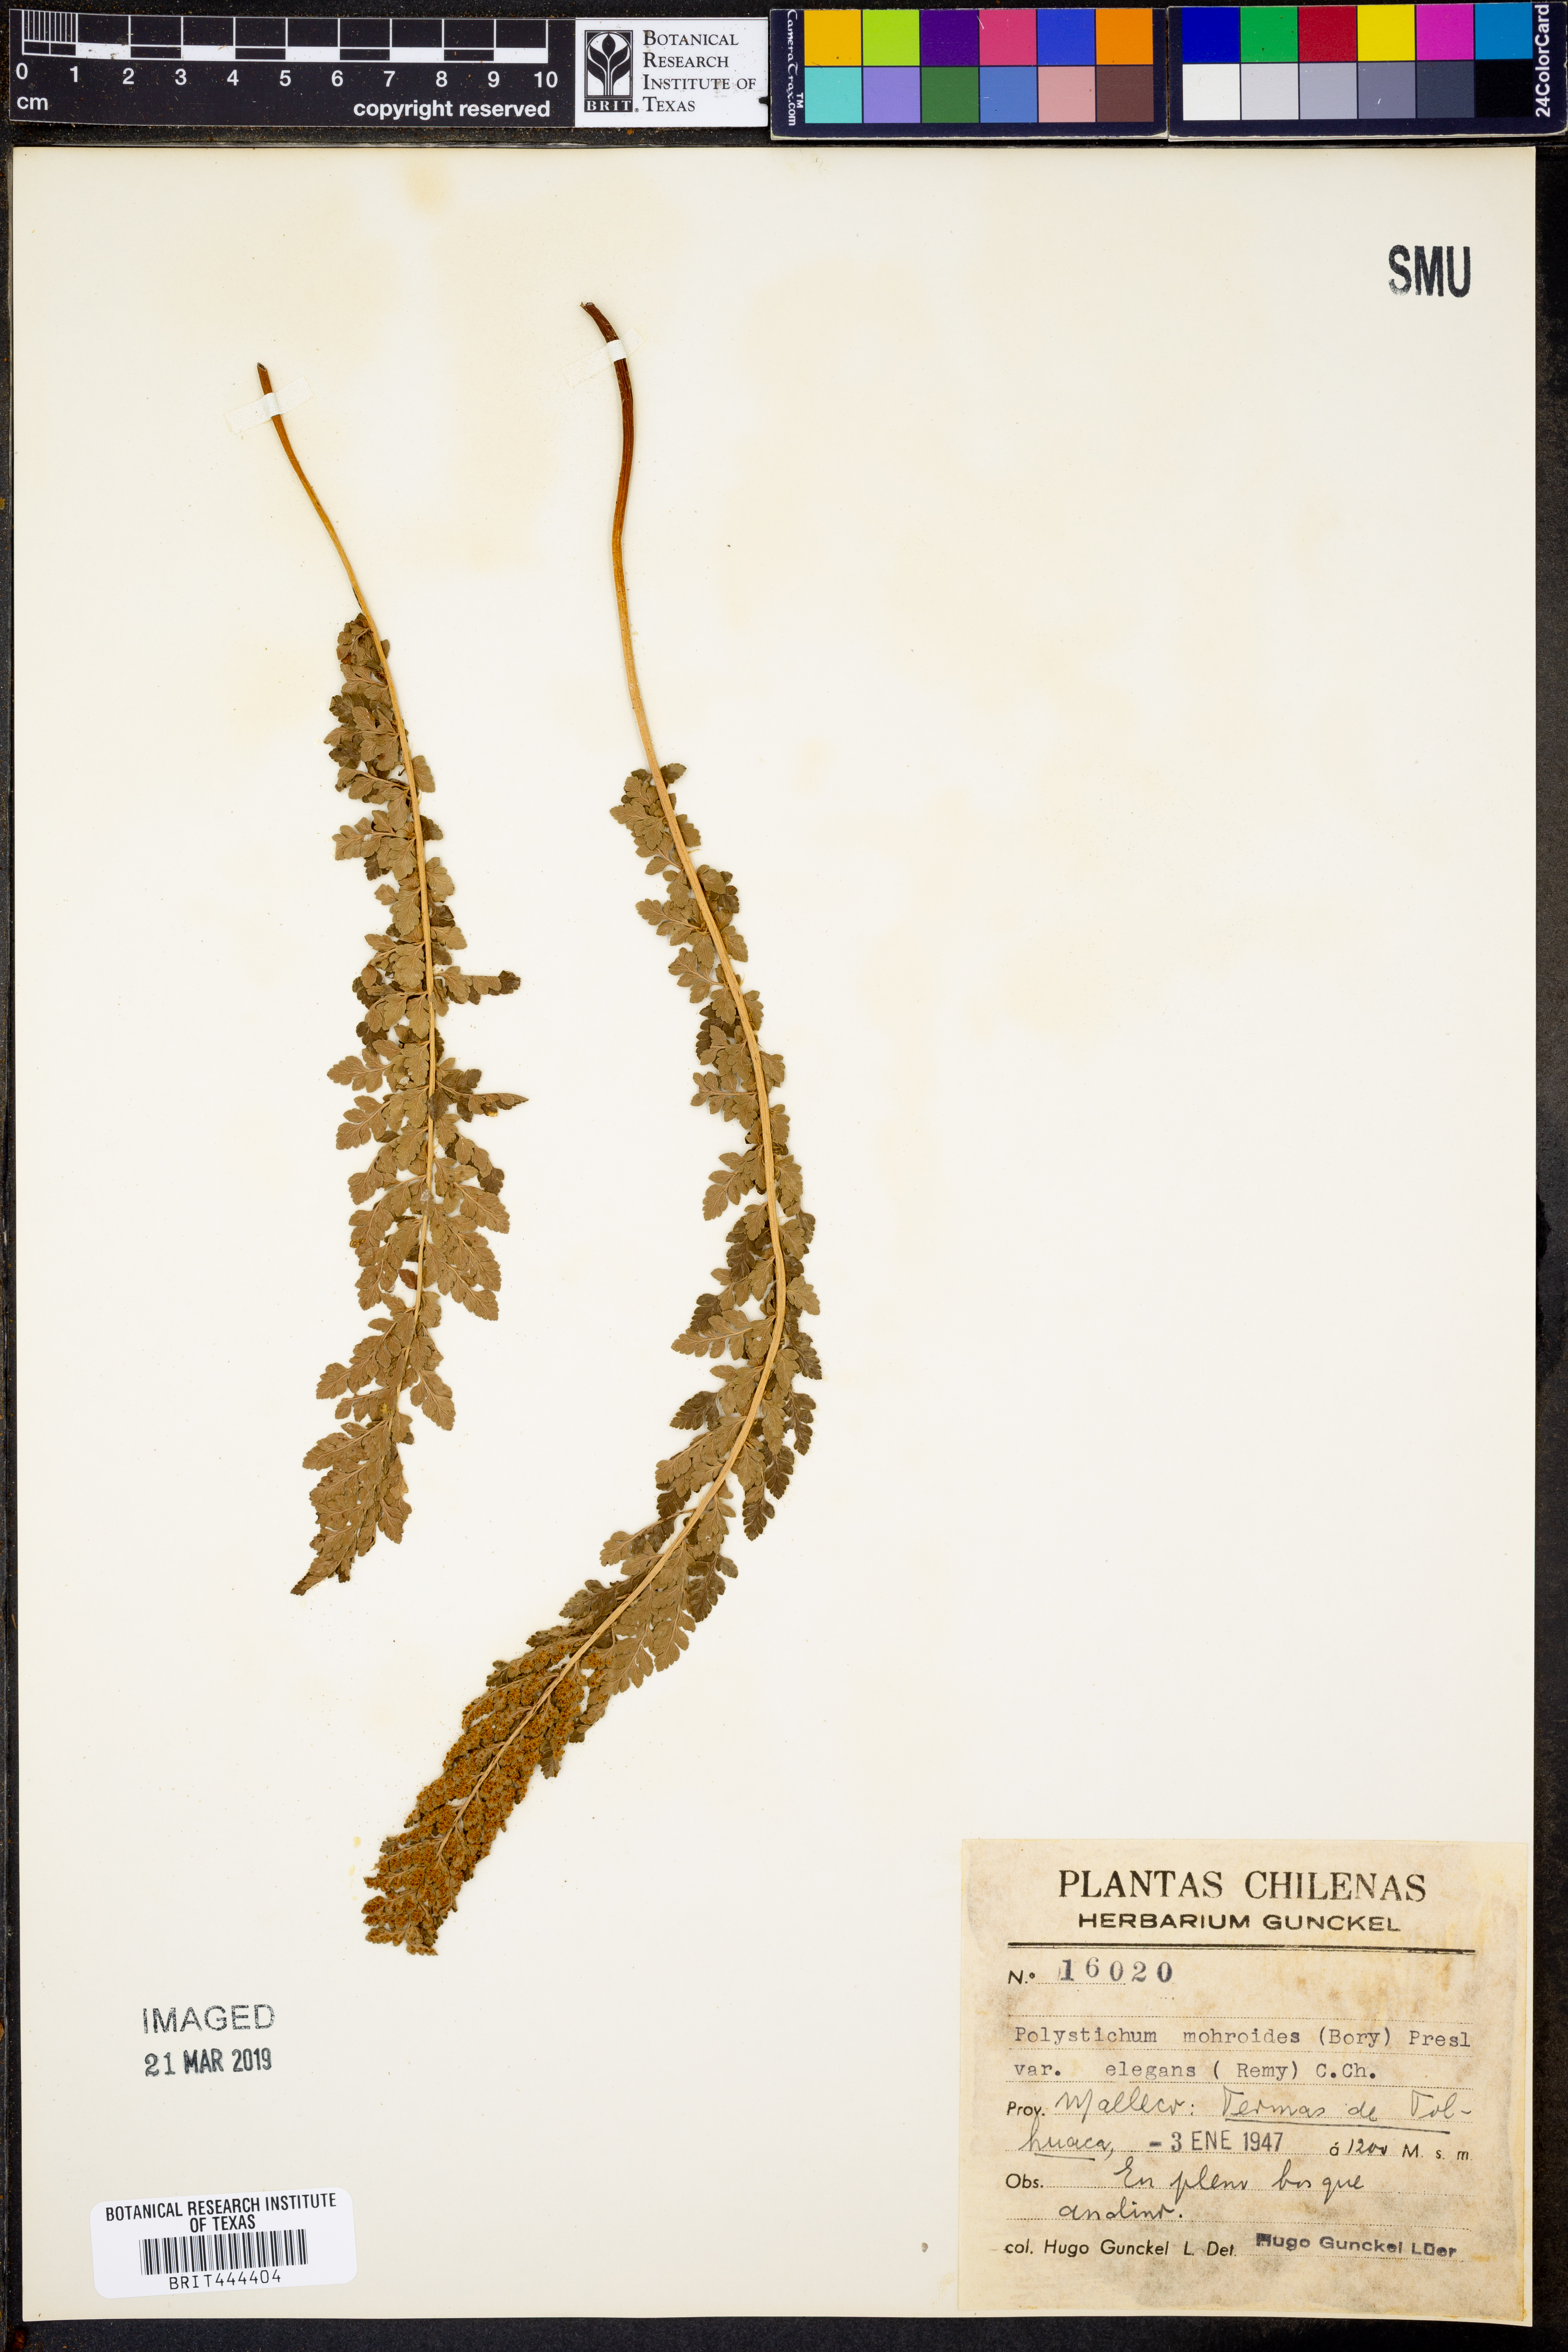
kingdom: Plantae
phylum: Tracheophyta
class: Polypodiopsida
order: Polypodiales
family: Dryopteridaceae
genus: Polystichum
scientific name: Polystichum mohrioides
